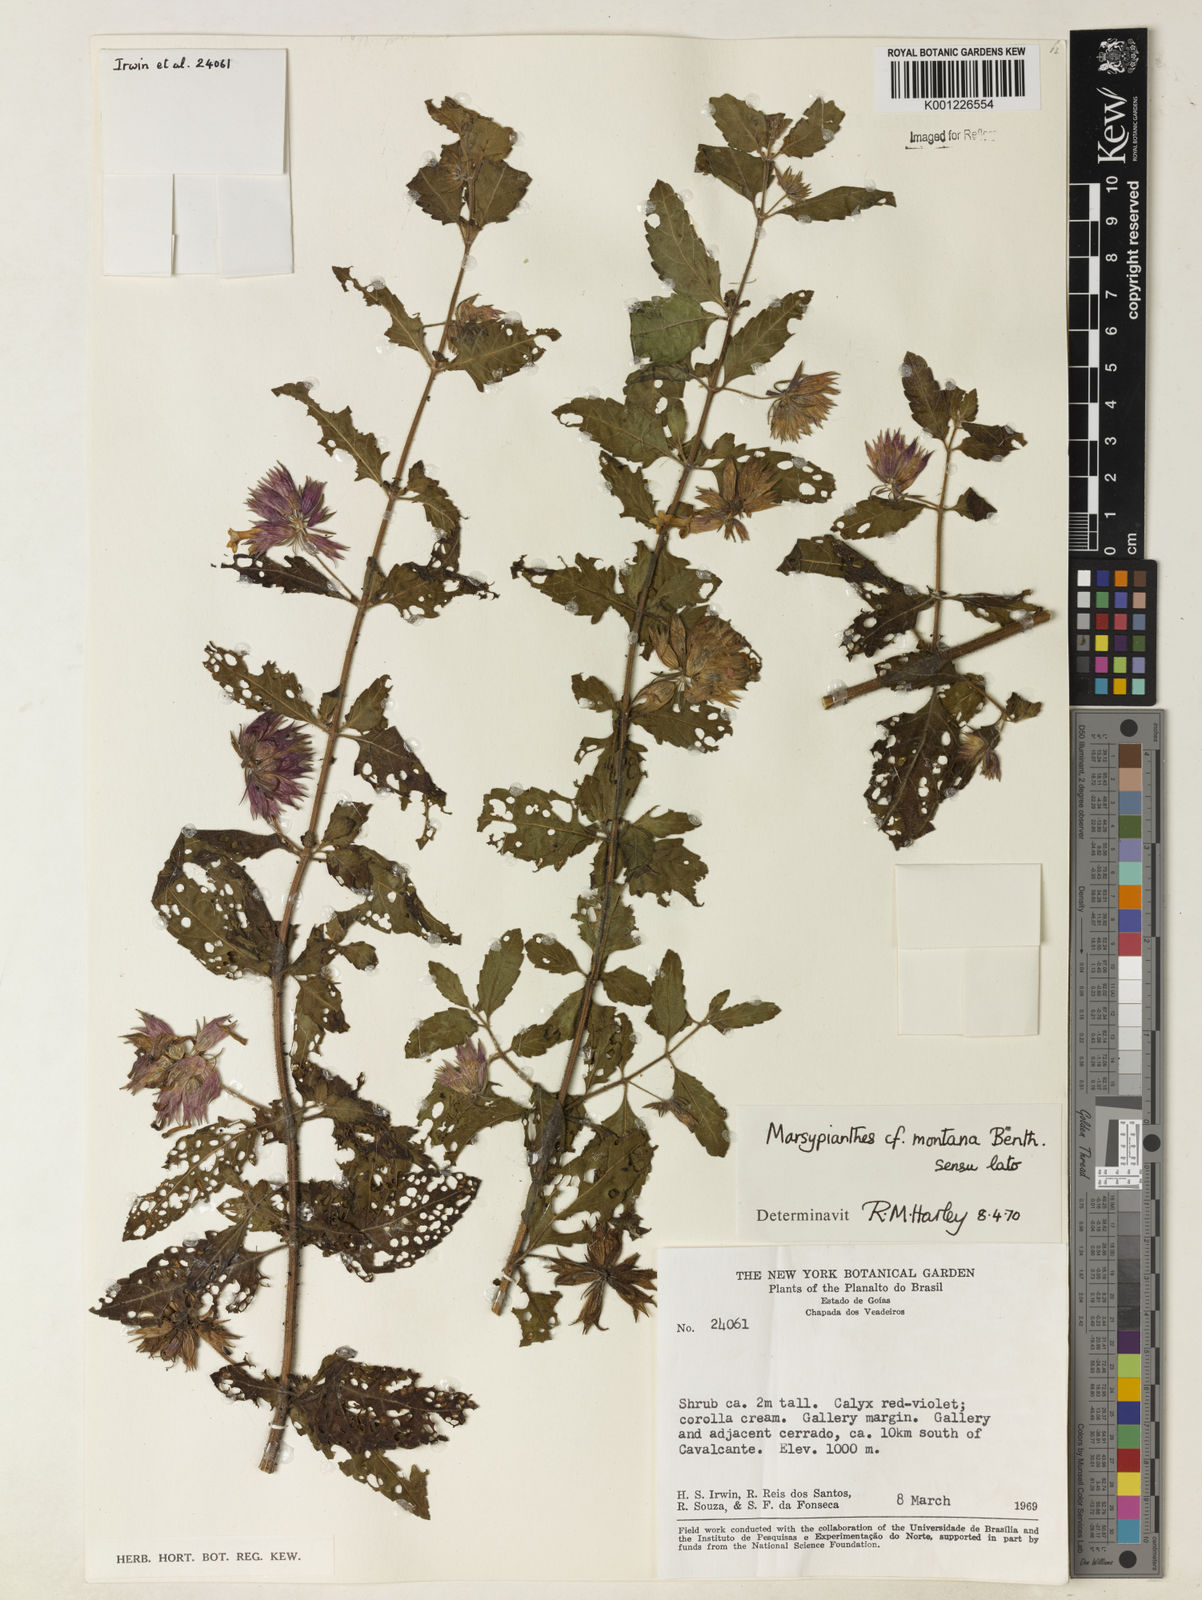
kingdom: Plantae
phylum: Tracheophyta
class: Magnoliopsida
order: Lamiales
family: Lamiaceae
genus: Marsypianthes
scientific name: Marsypianthes burchellii
